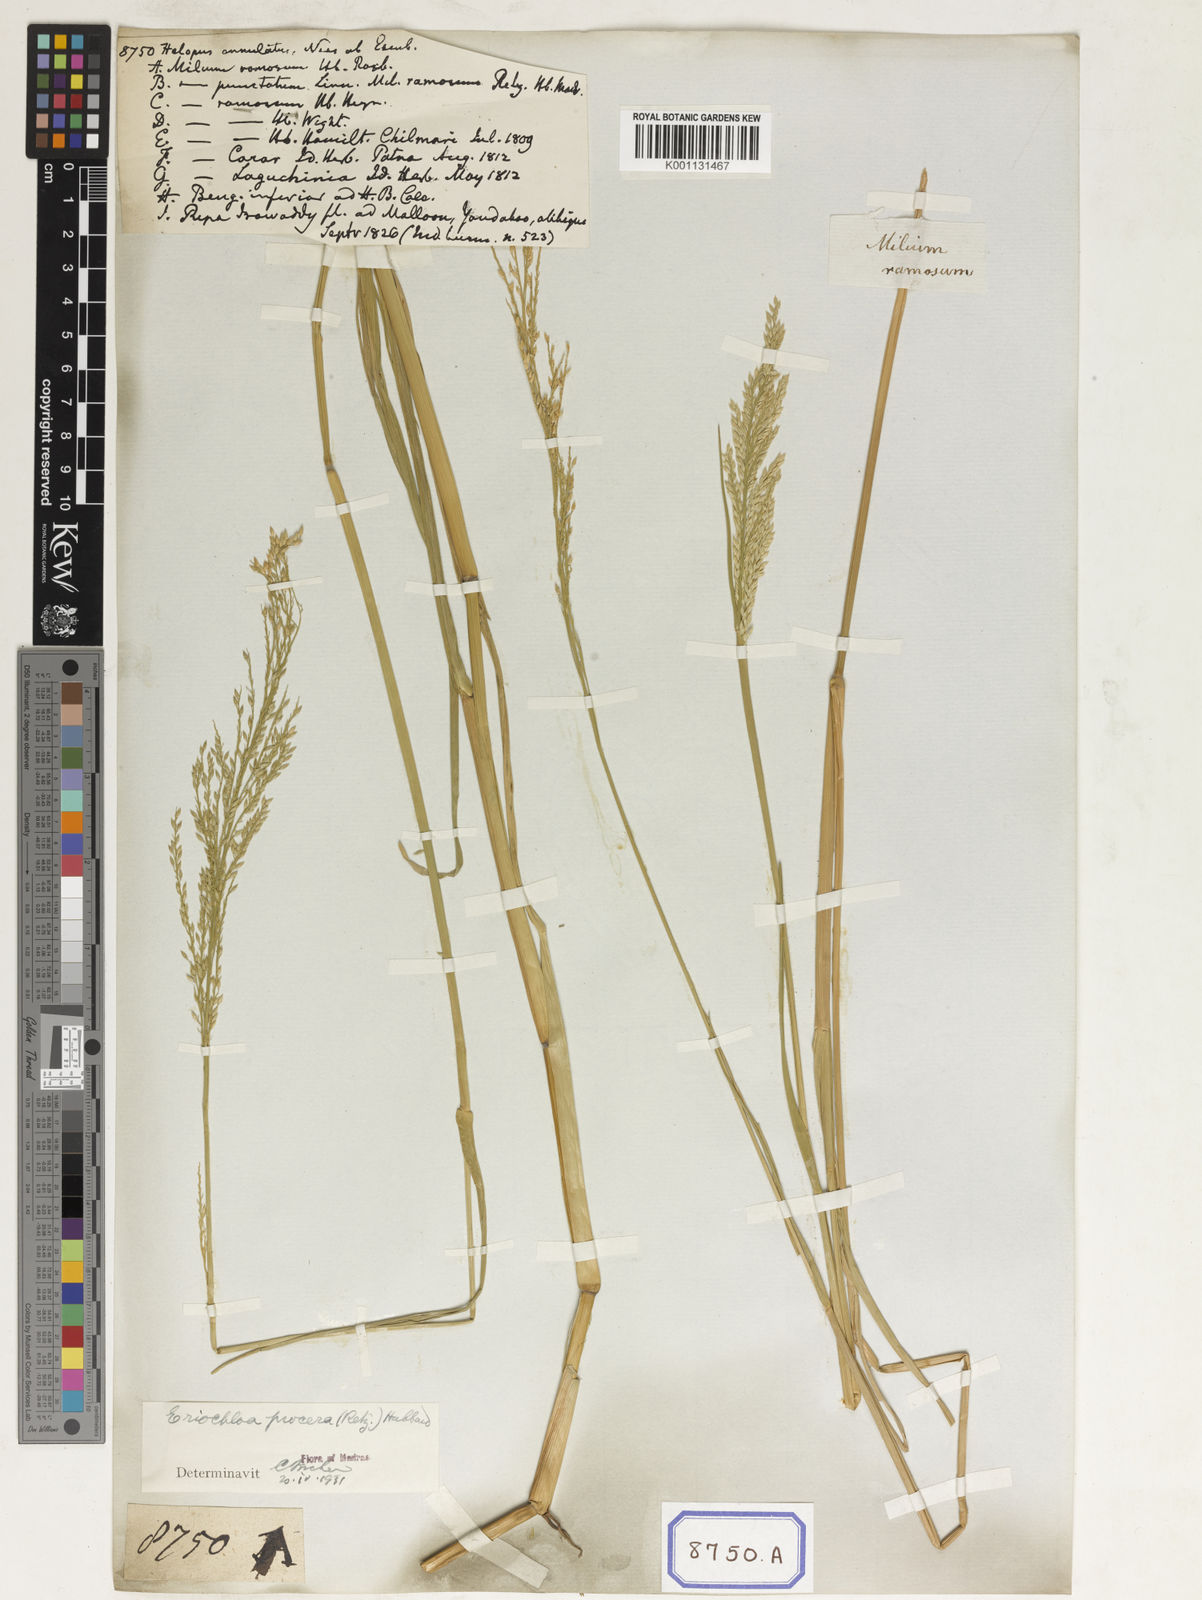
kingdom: Plantae
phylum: Tracheophyta
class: Liliopsida
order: Poales
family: Poaceae
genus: Eriochloa
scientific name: Eriochloa procera
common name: Spring grass
